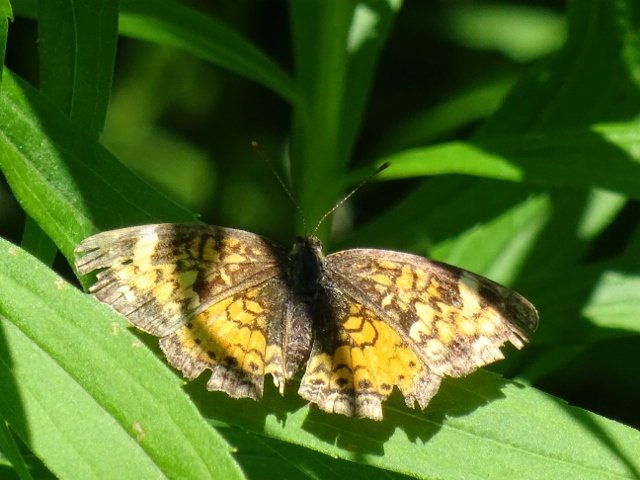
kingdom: Animalia
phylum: Arthropoda
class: Insecta
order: Lepidoptera
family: Nymphalidae
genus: Phyciodes
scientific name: Phyciodes tharos
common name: Northern Crescent
